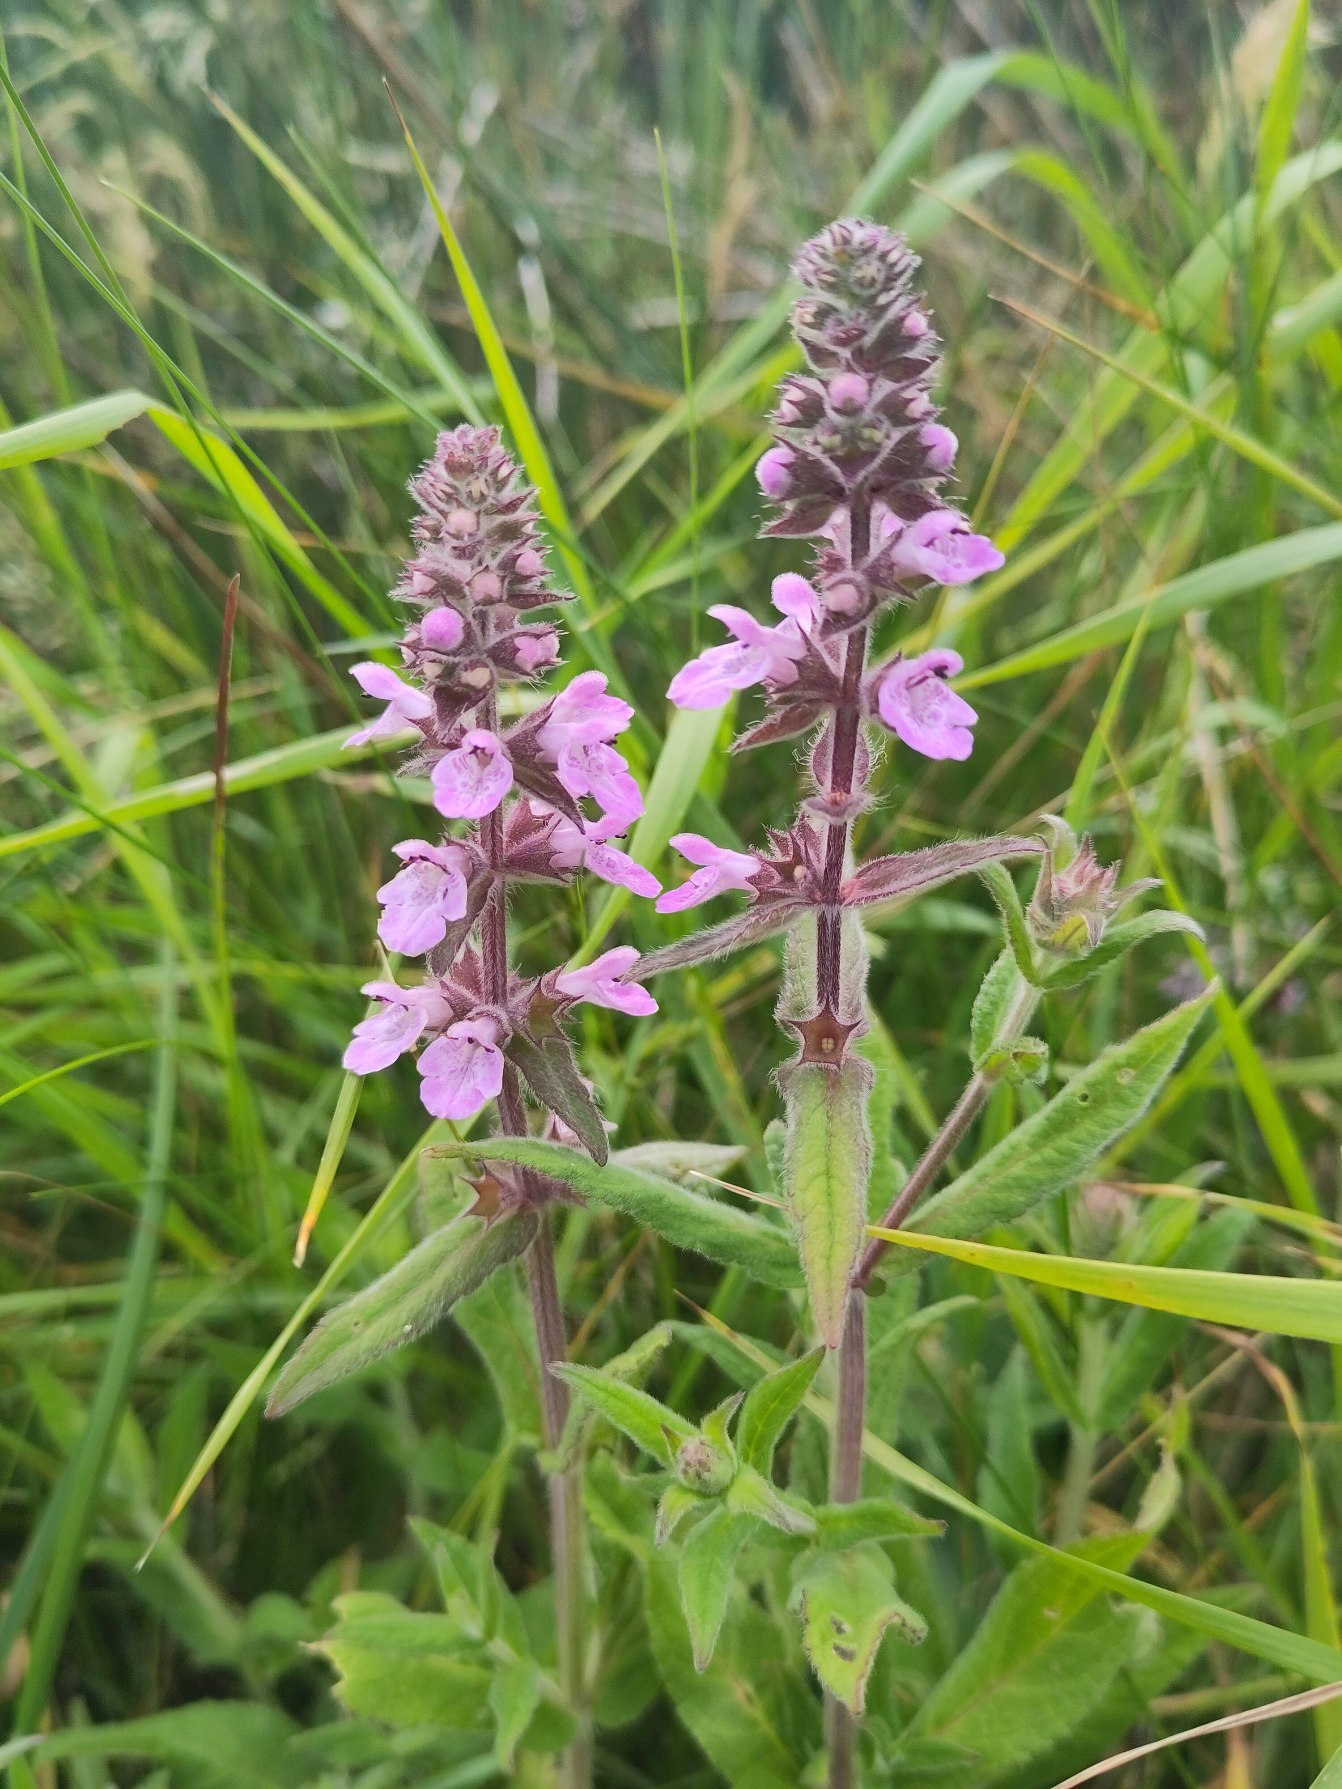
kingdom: Plantae
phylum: Tracheophyta
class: Magnoliopsida
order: Lamiales
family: Lamiaceae
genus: Stachys
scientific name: Stachys palustris
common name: Kær-galtetand
